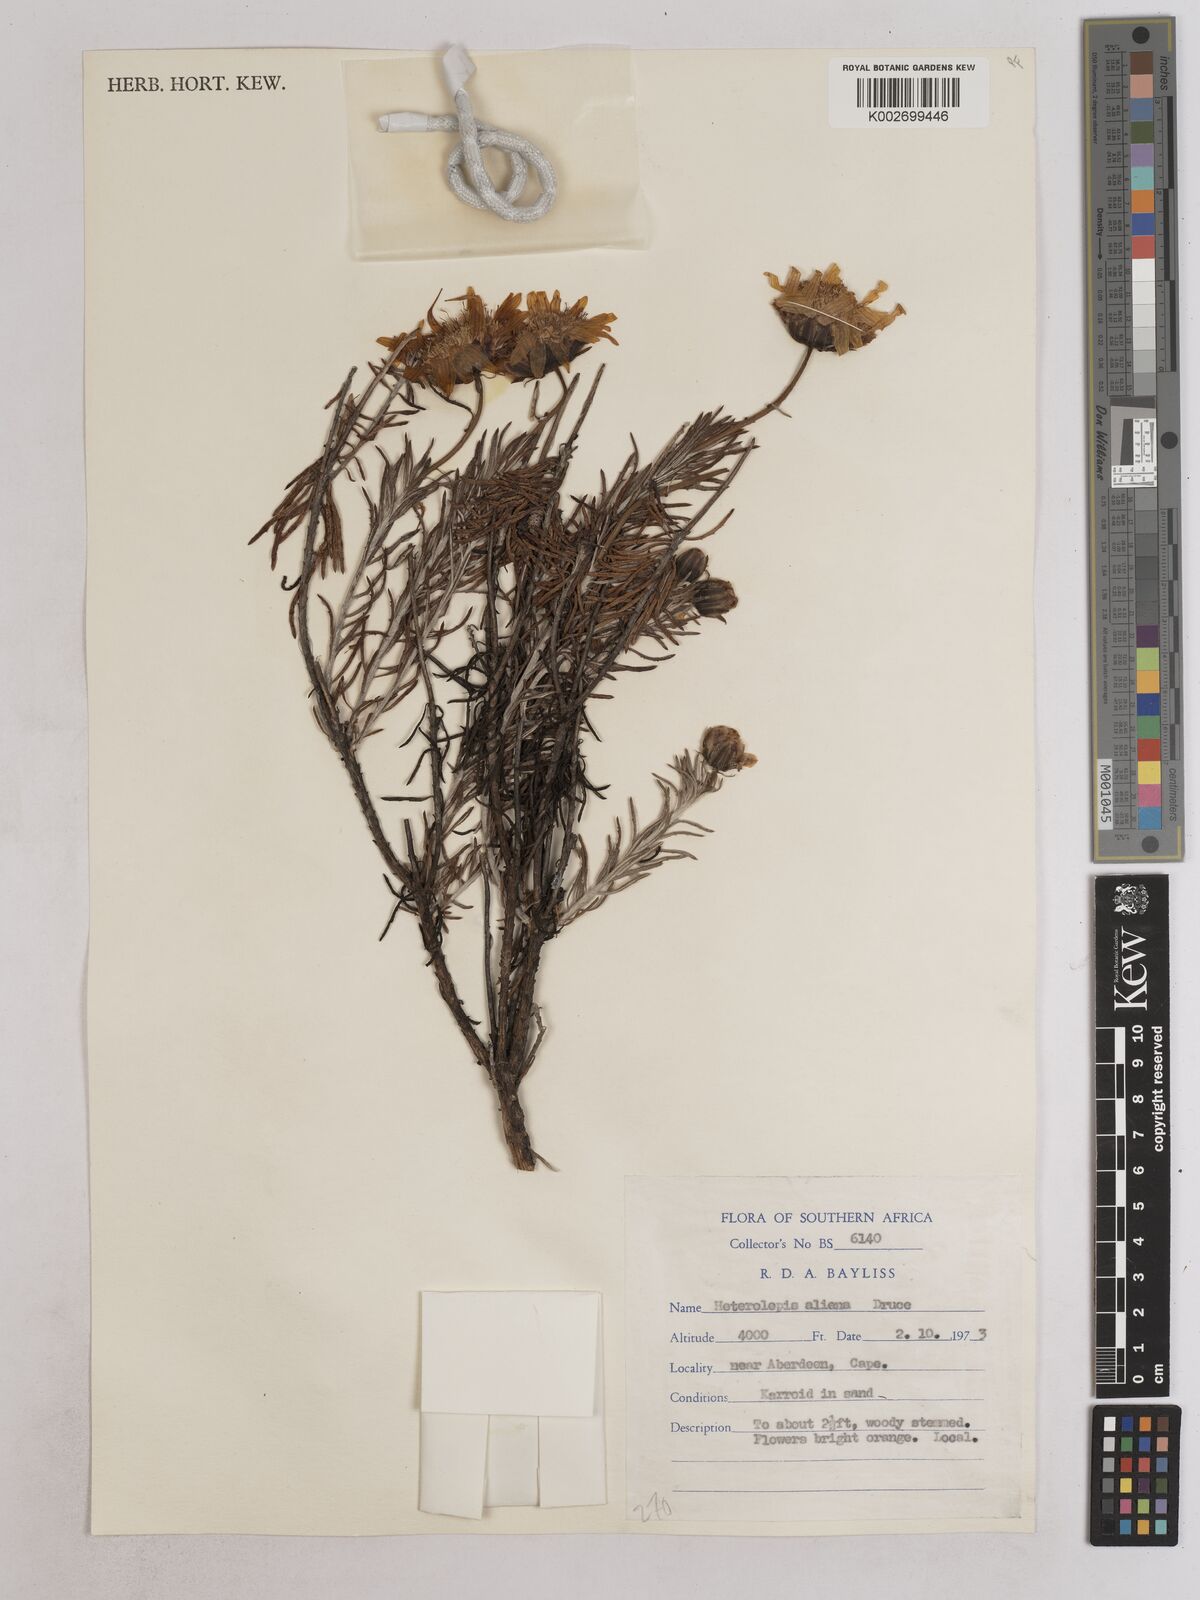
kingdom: Plantae
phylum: Tracheophyta
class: Magnoliopsida
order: Asterales
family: Asteraceae
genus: Heterolepis
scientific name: Heterolepis aliena
